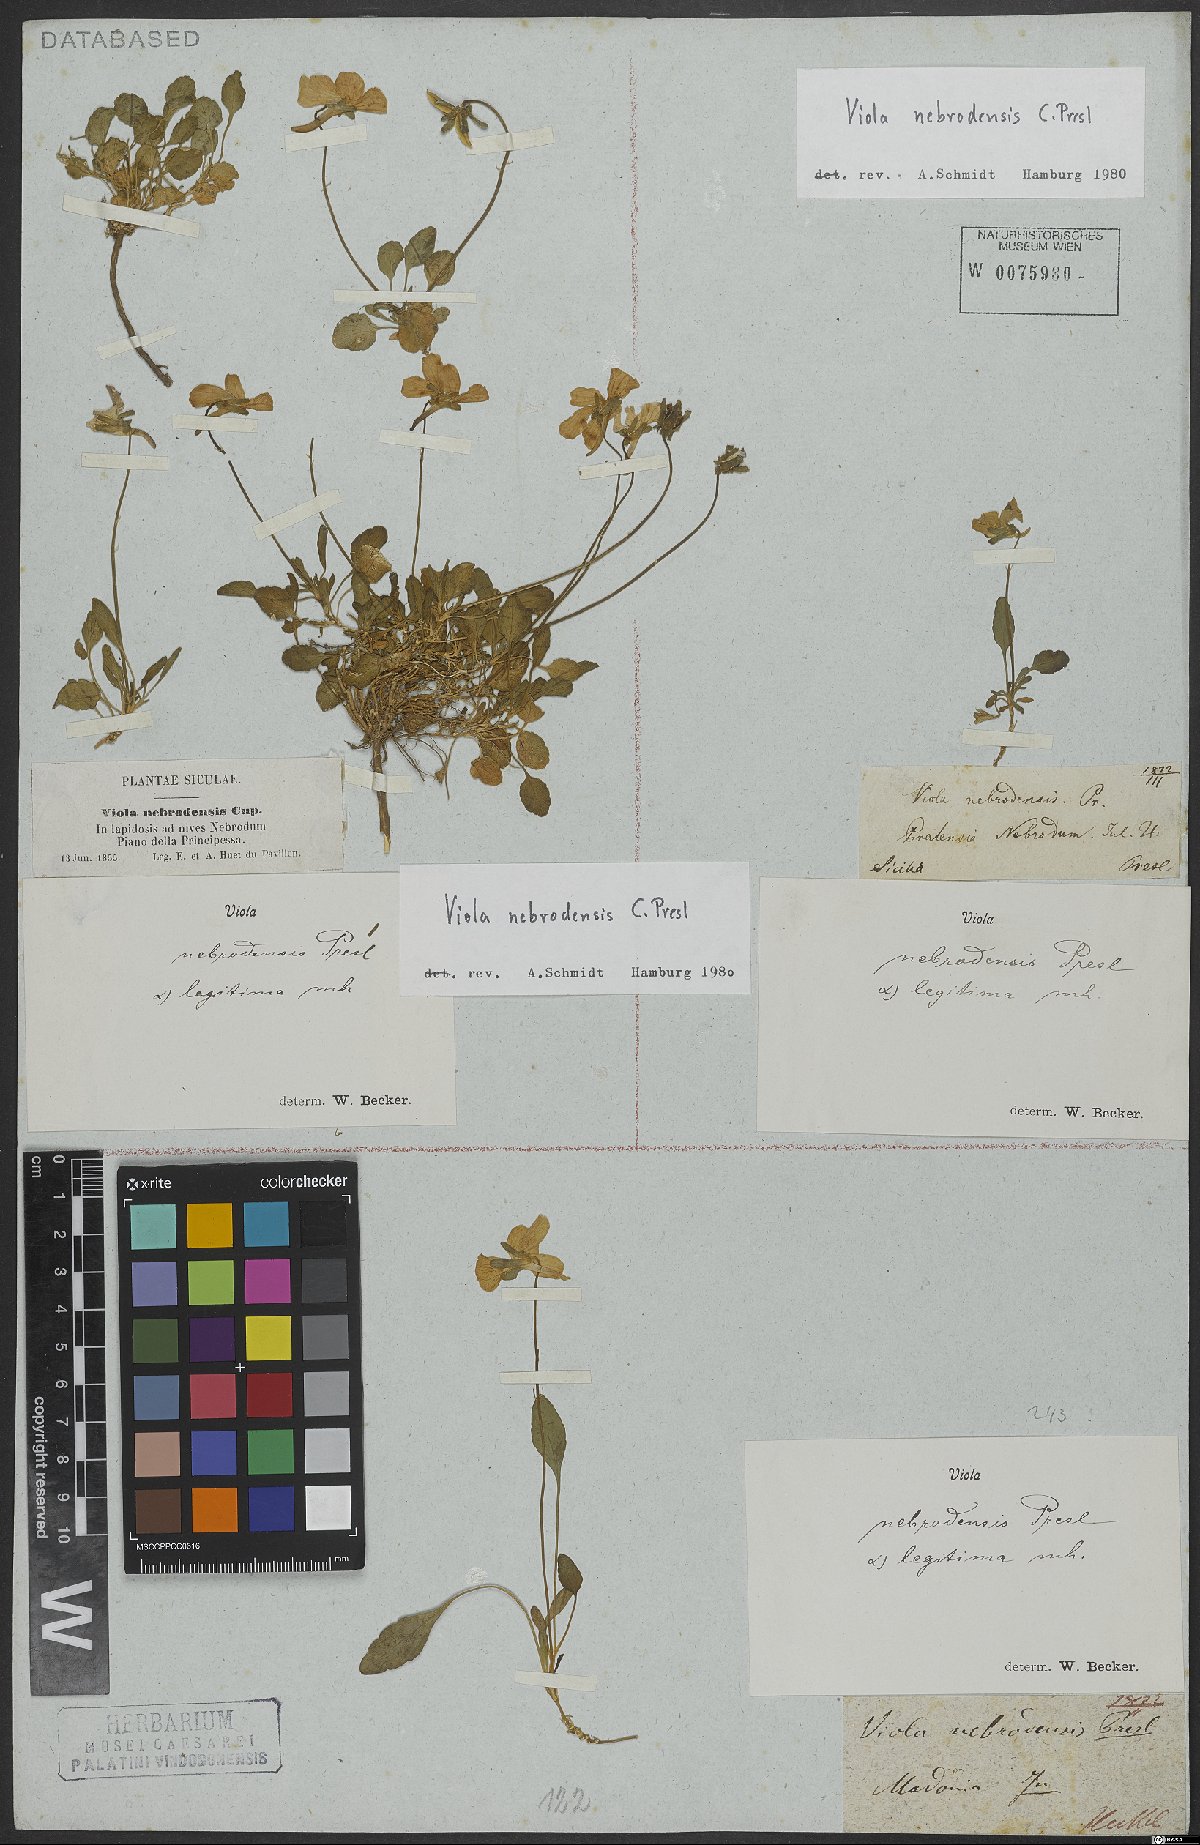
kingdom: Plantae
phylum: Tracheophyta
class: Magnoliopsida
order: Malpighiales
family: Violaceae
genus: Viola
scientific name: Viola nebrodensis
